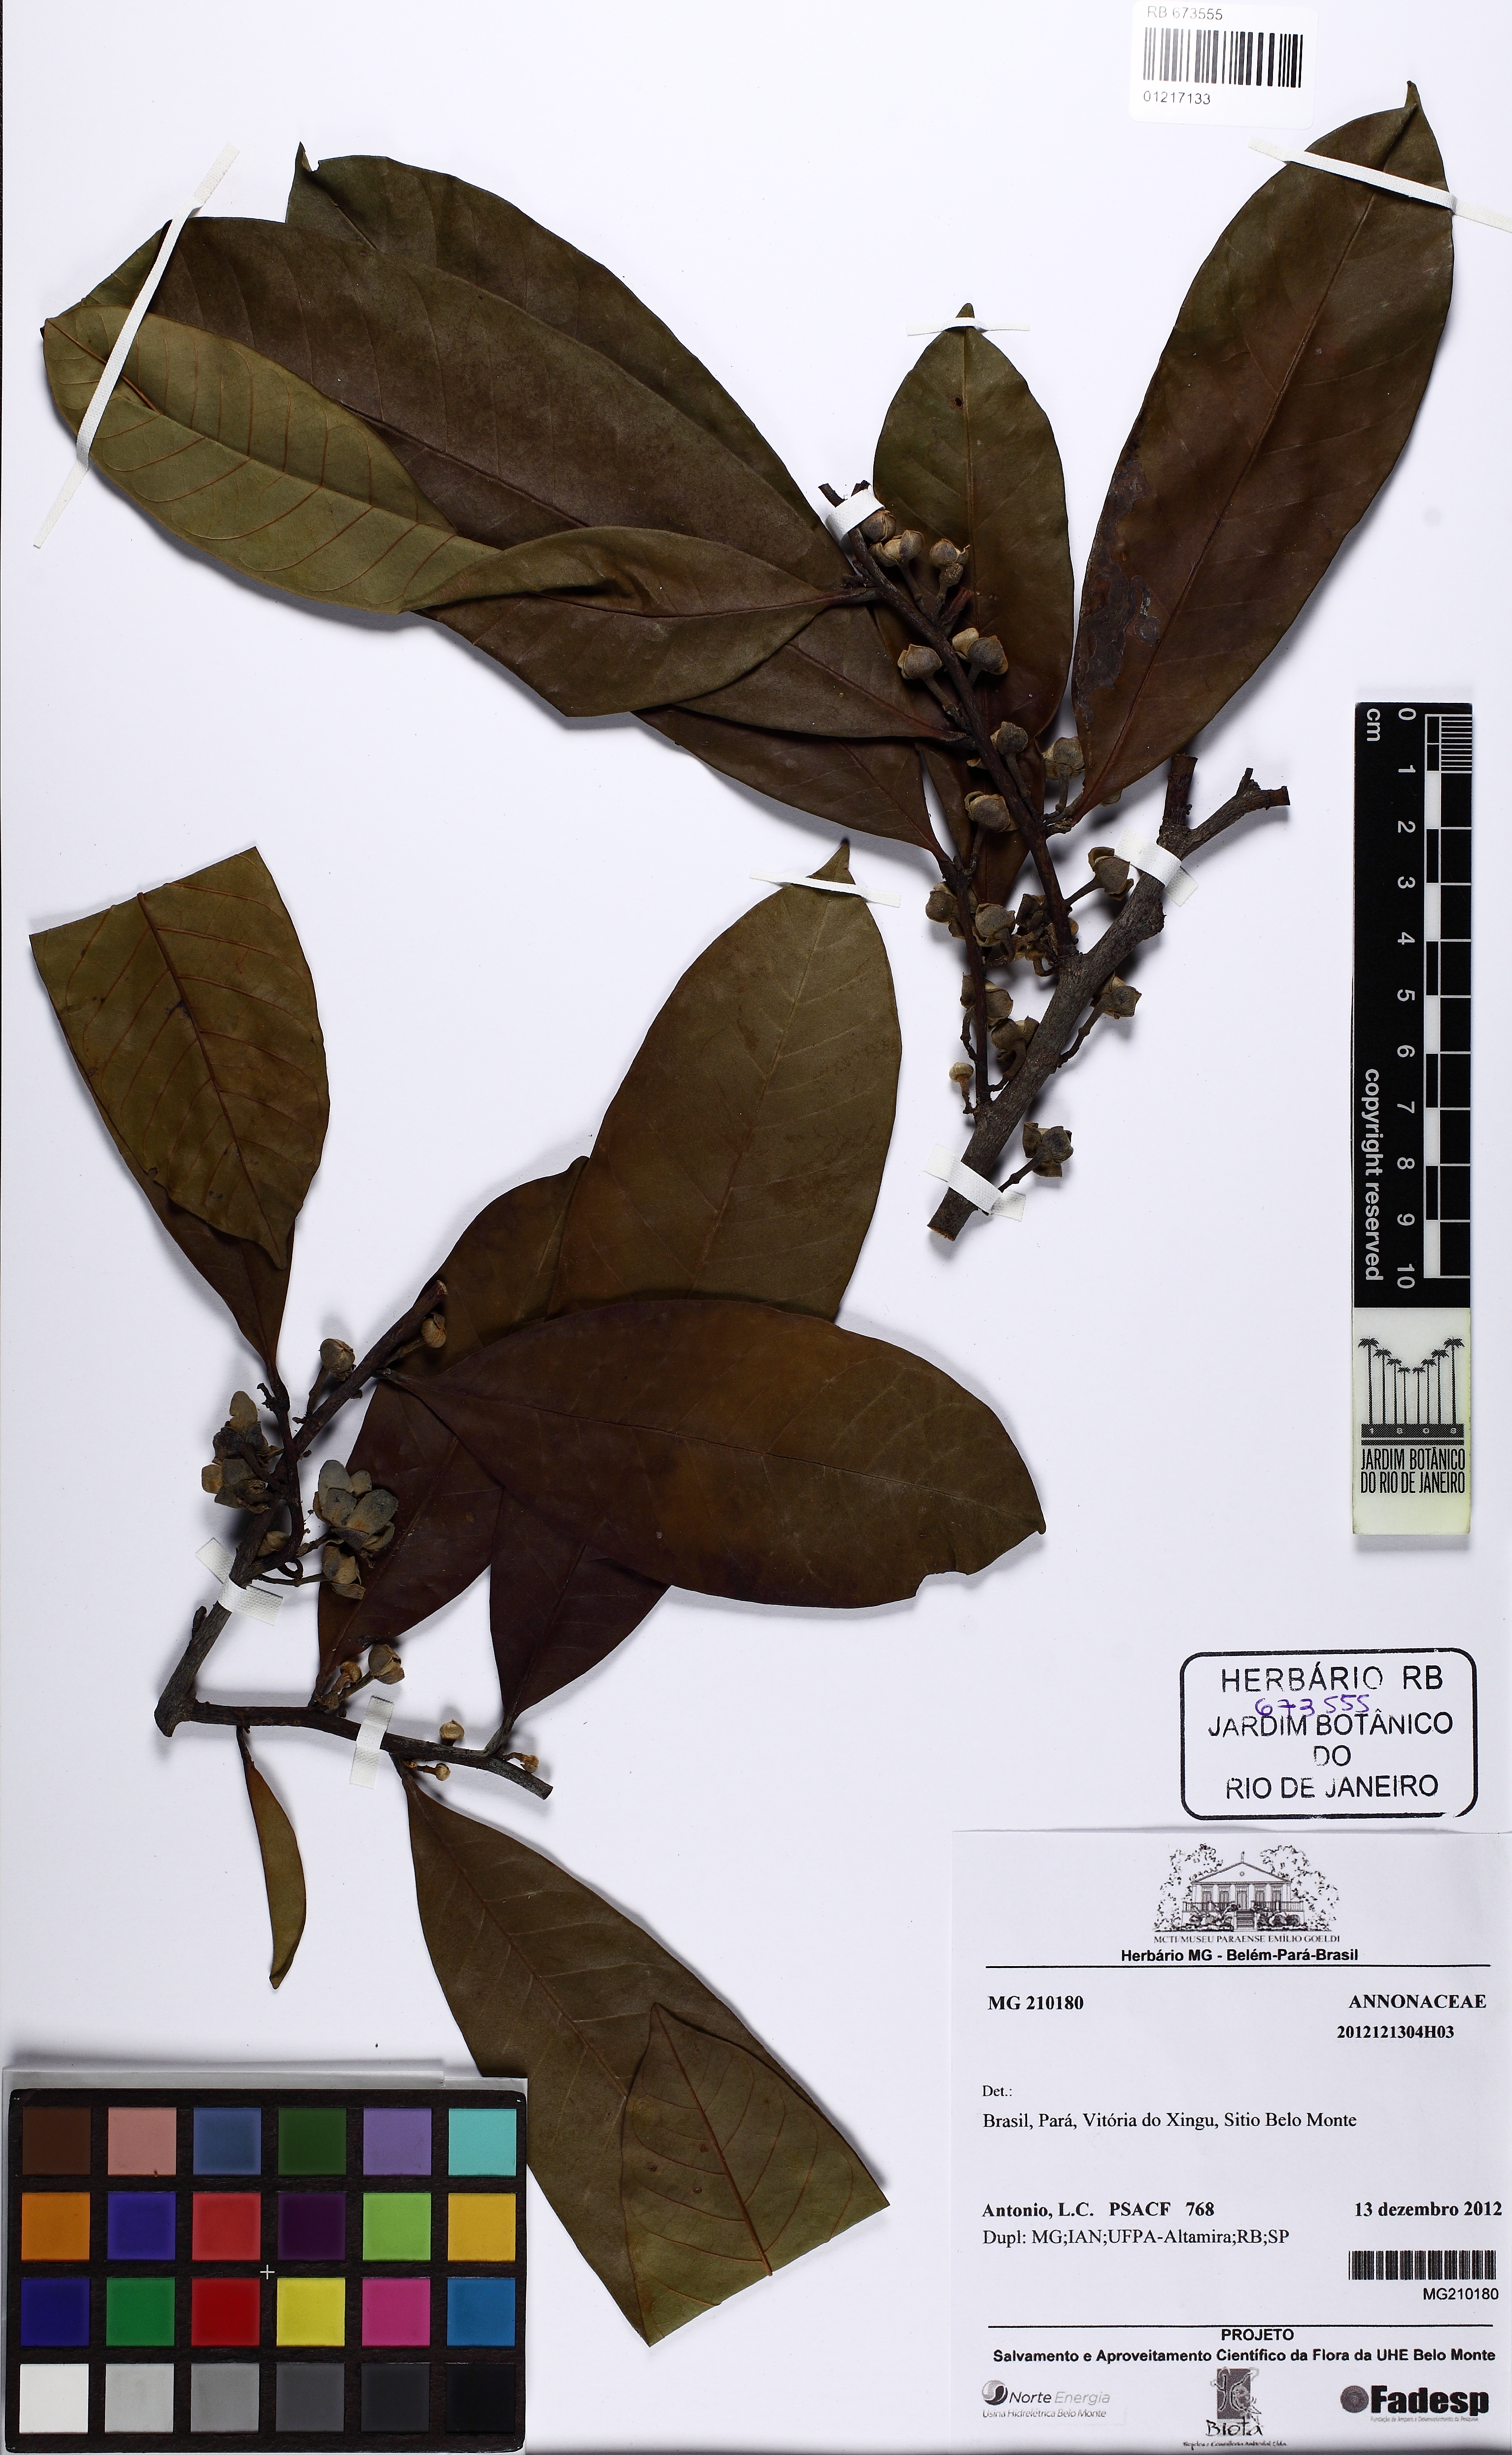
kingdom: Plantae
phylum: Tracheophyta
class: Magnoliopsida
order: Magnoliales
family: Annonaceae
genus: Guatteria
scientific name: Guatteria
